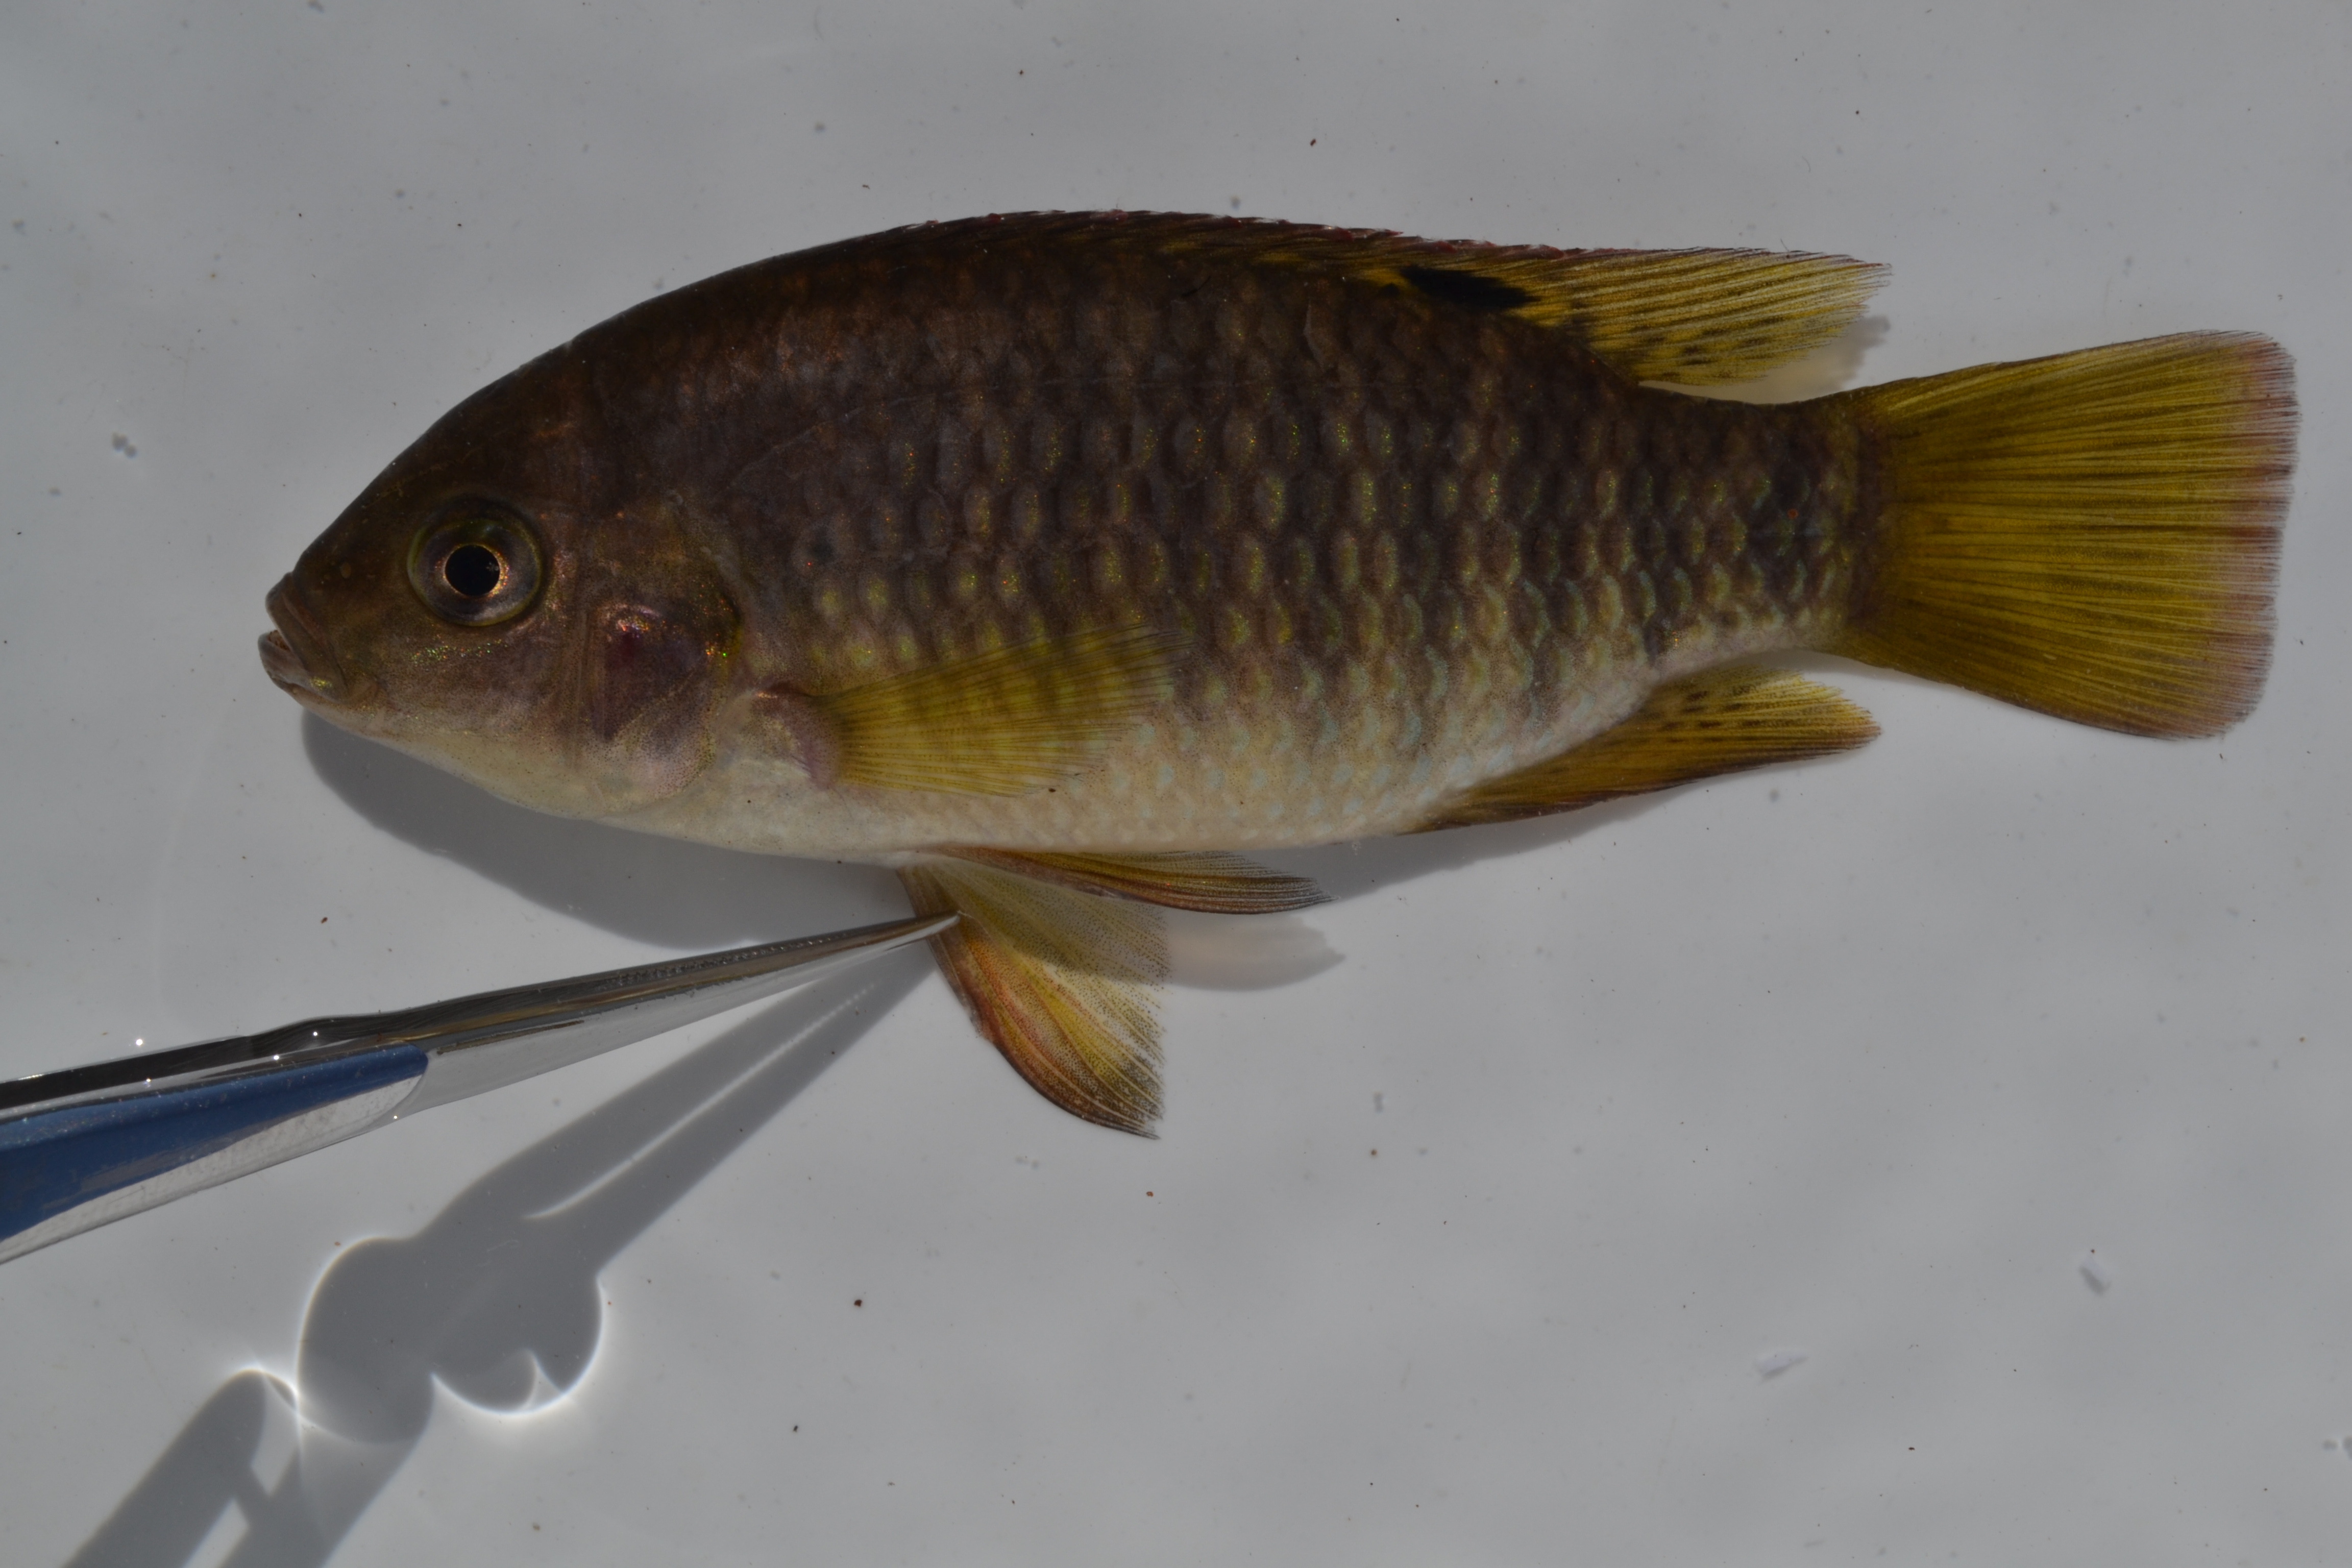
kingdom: Animalia
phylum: Chordata
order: Perciformes
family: Cichlidae
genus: Tilapia
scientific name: Tilapia sparrmanii
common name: Banded tilapia
